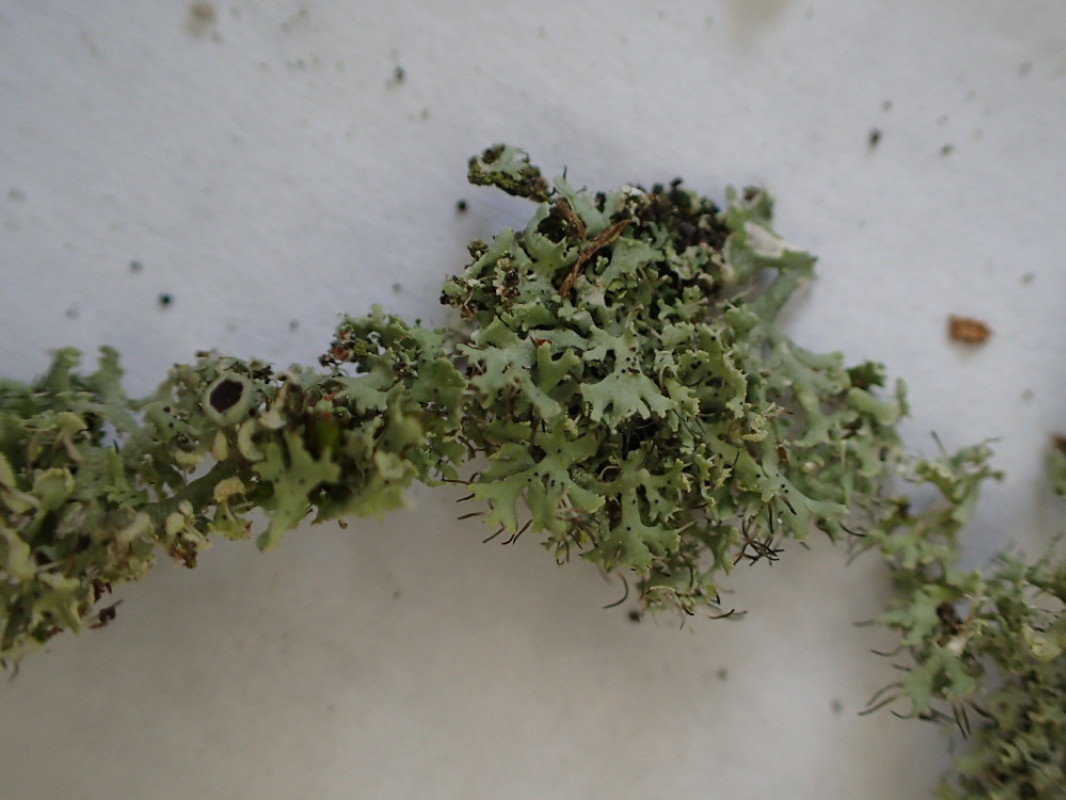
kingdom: Fungi
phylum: Ascomycota
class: Lecanoromycetes
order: Caliciales
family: Physciaceae
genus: Physcia
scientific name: Physcia tenella
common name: spæd rosetlav
